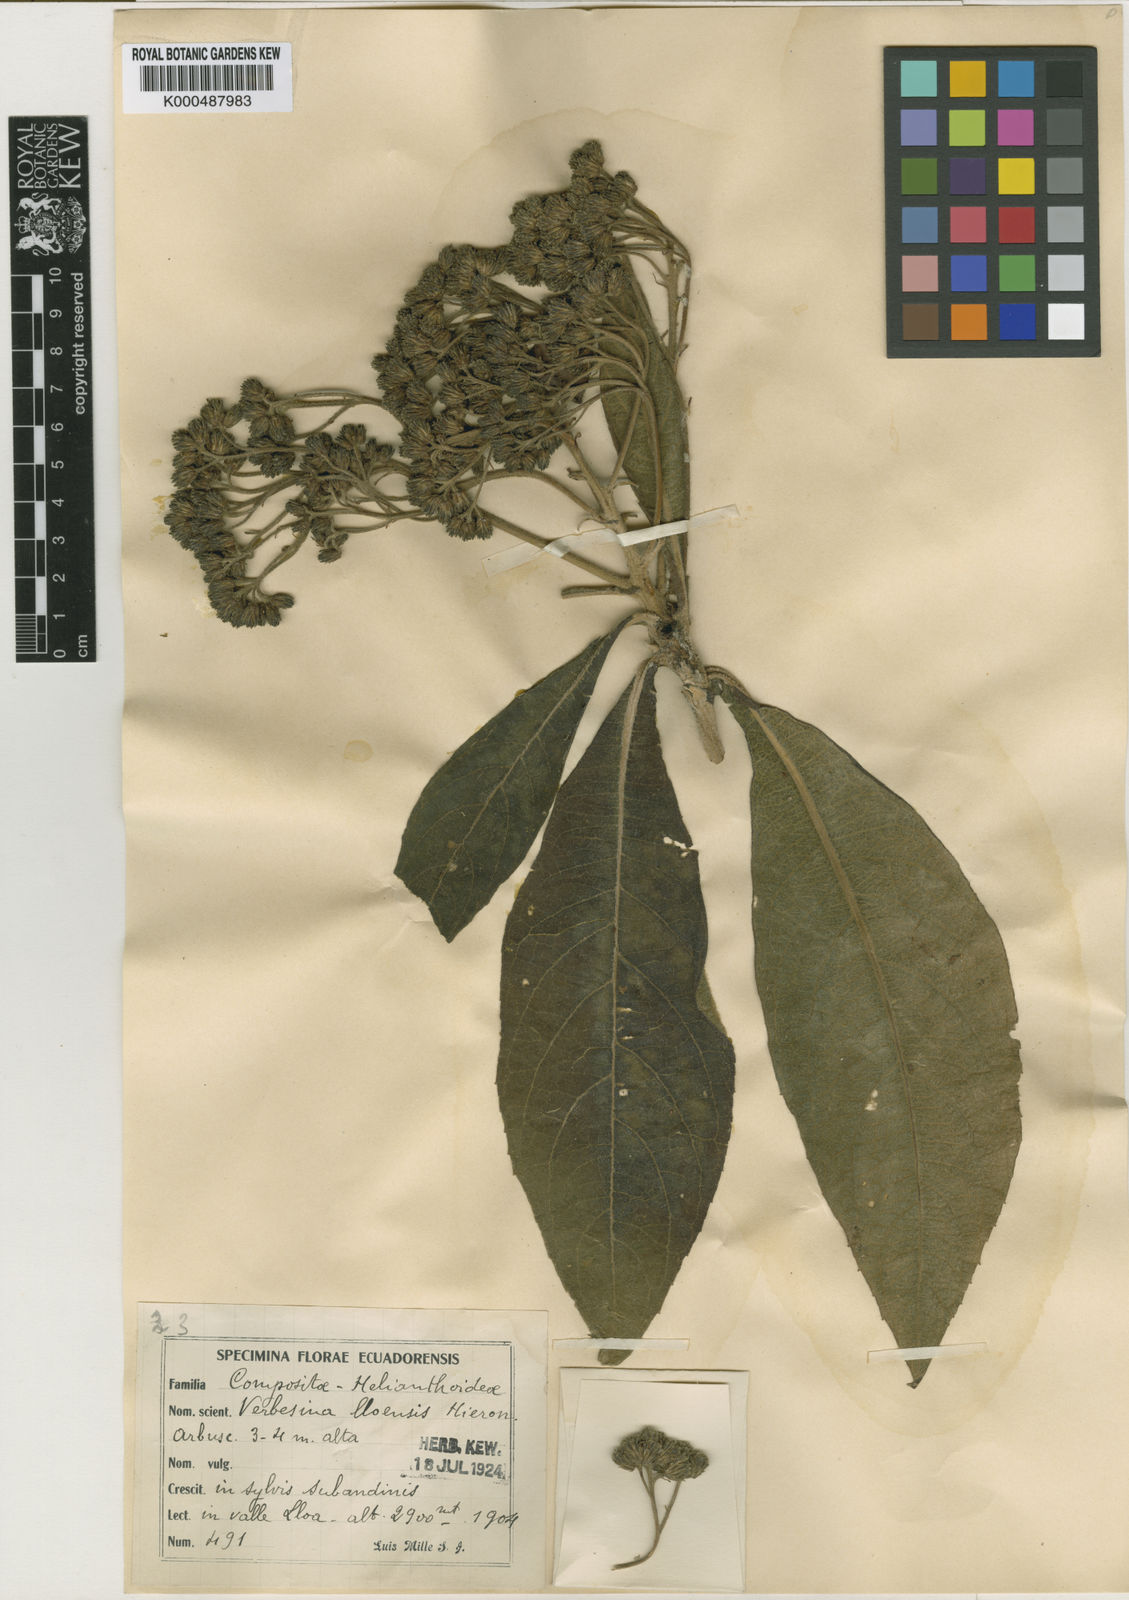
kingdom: Plantae
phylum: Tracheophyta
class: Magnoliopsida
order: Asterales
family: Asteraceae
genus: Verbesina
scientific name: Verbesina lloensis
